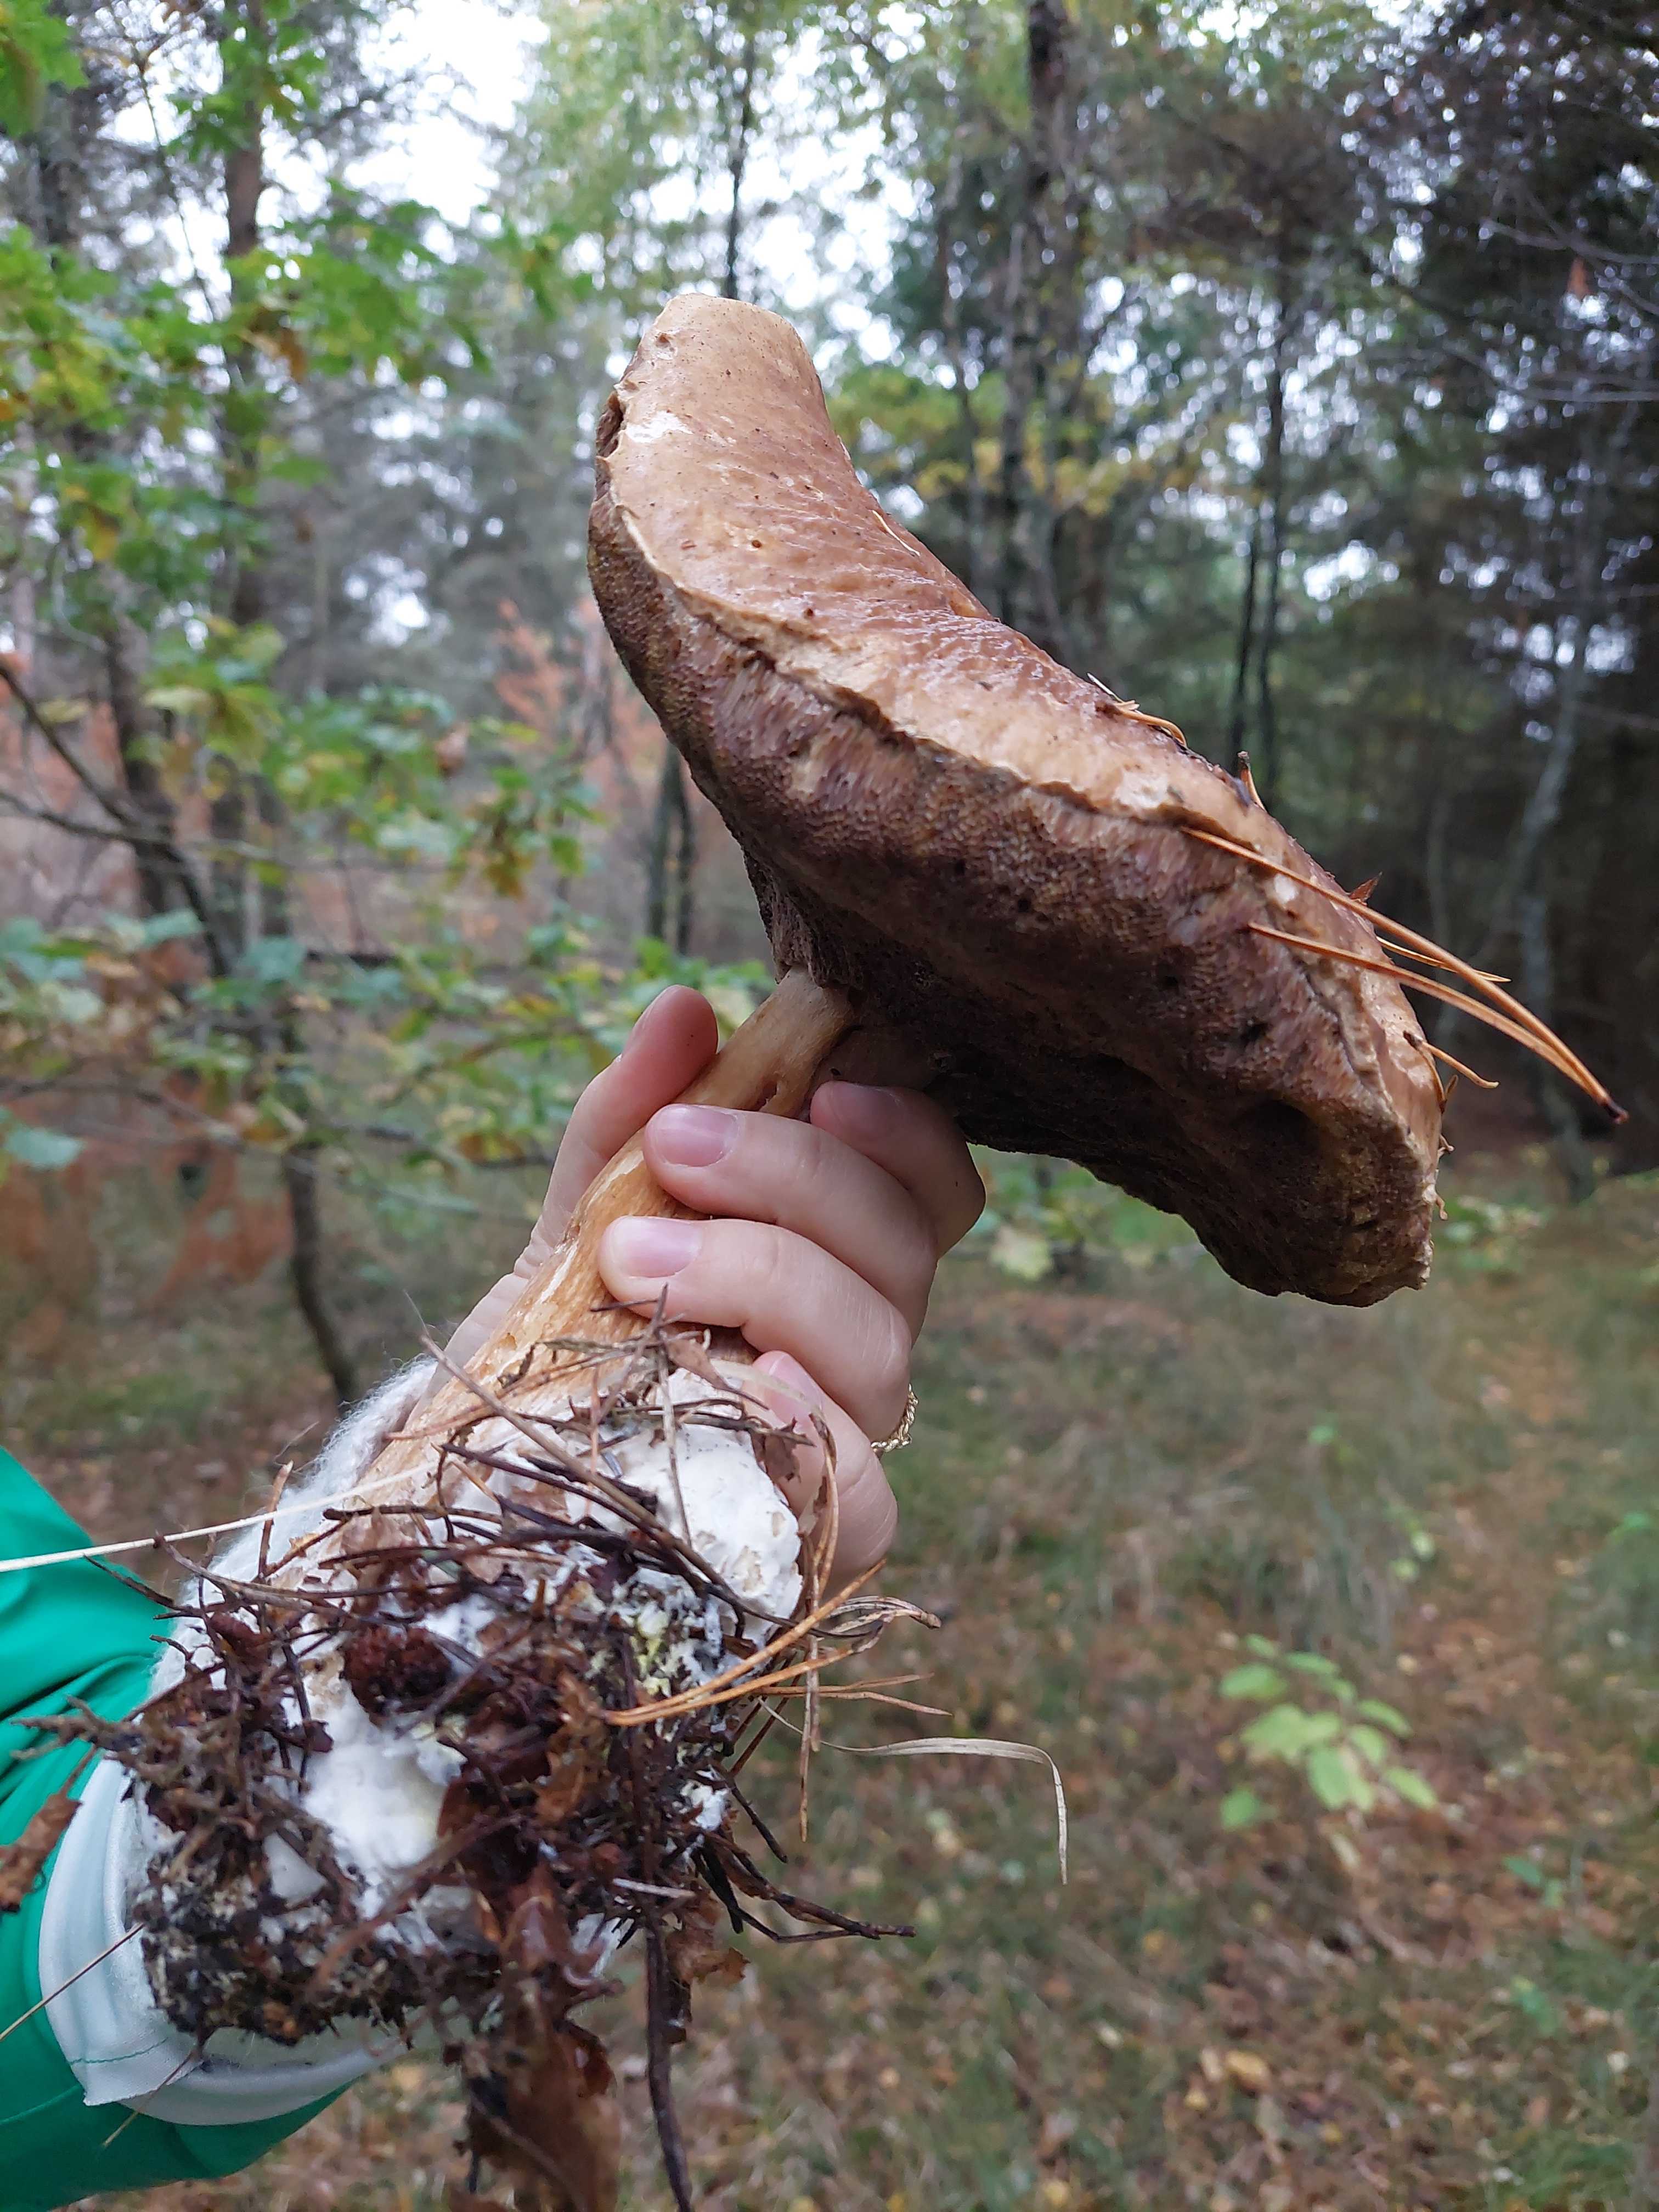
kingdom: Fungi
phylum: Basidiomycota
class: Agaricomycetes
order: Boletales
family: Boletaceae
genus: Boletus
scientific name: Boletus
